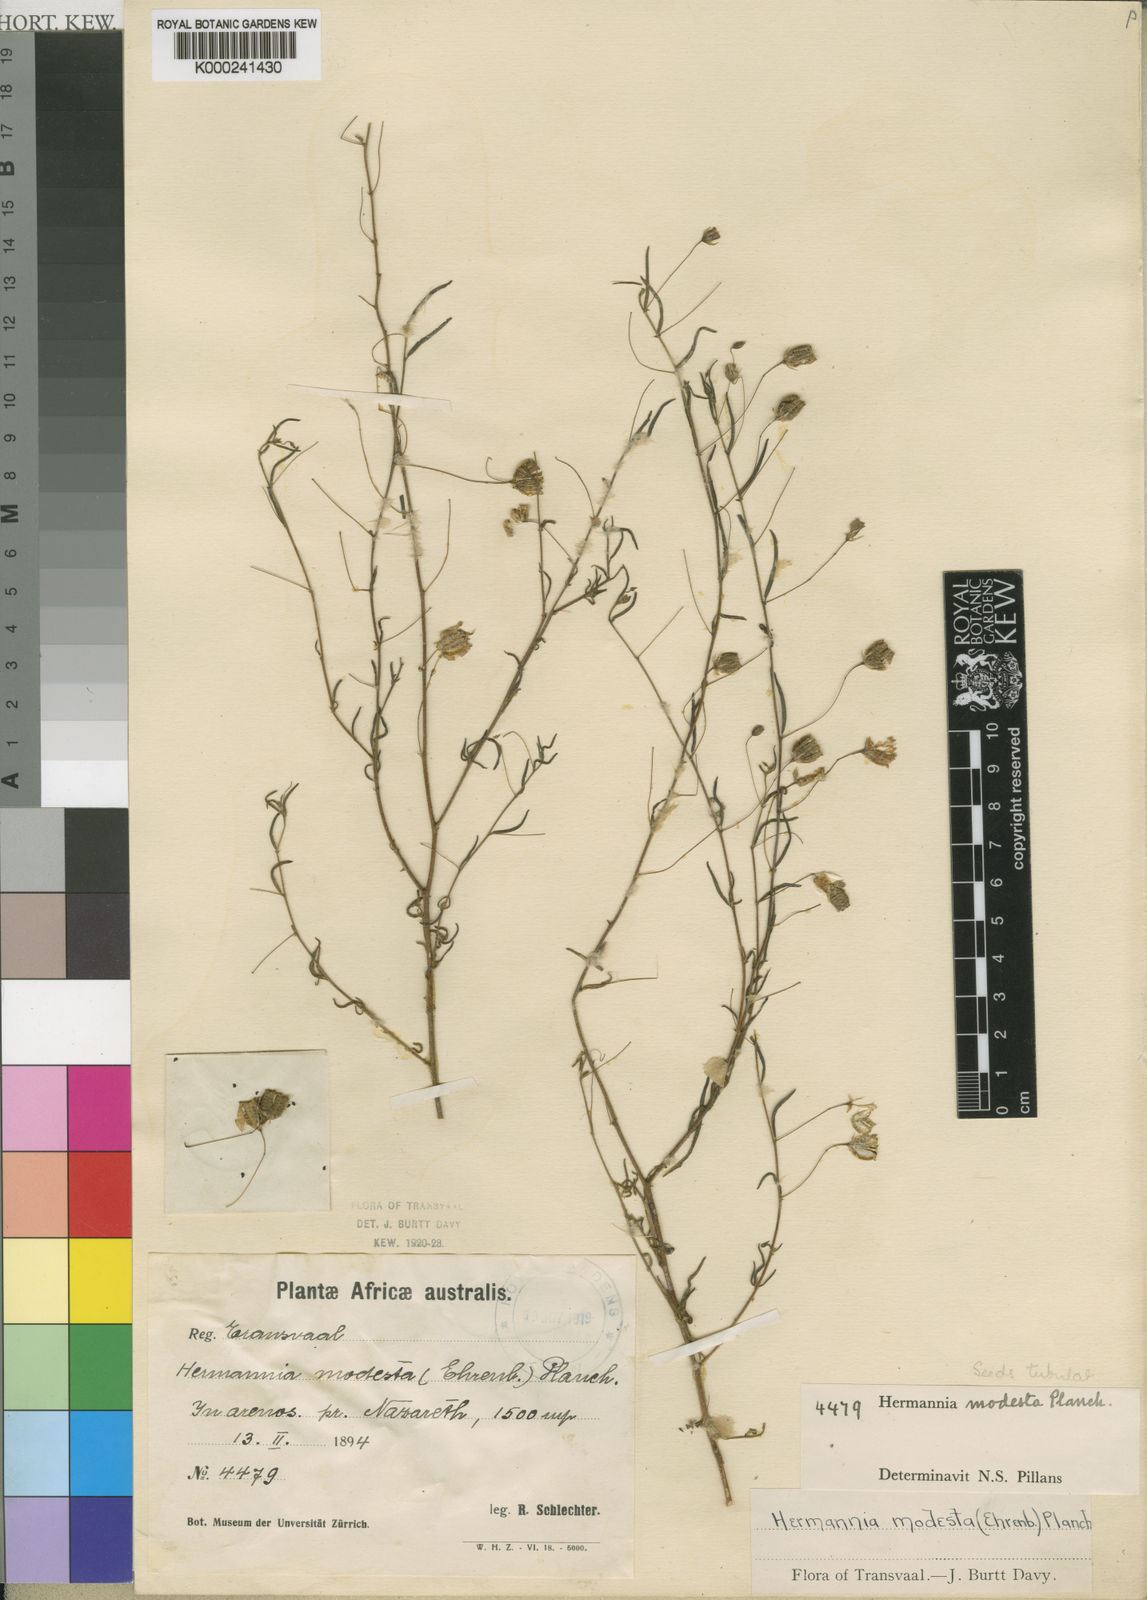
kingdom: Plantae
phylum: Tracheophyta
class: Magnoliopsida
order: Malvales
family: Malvaceae
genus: Hermannia
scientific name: Hermannia
